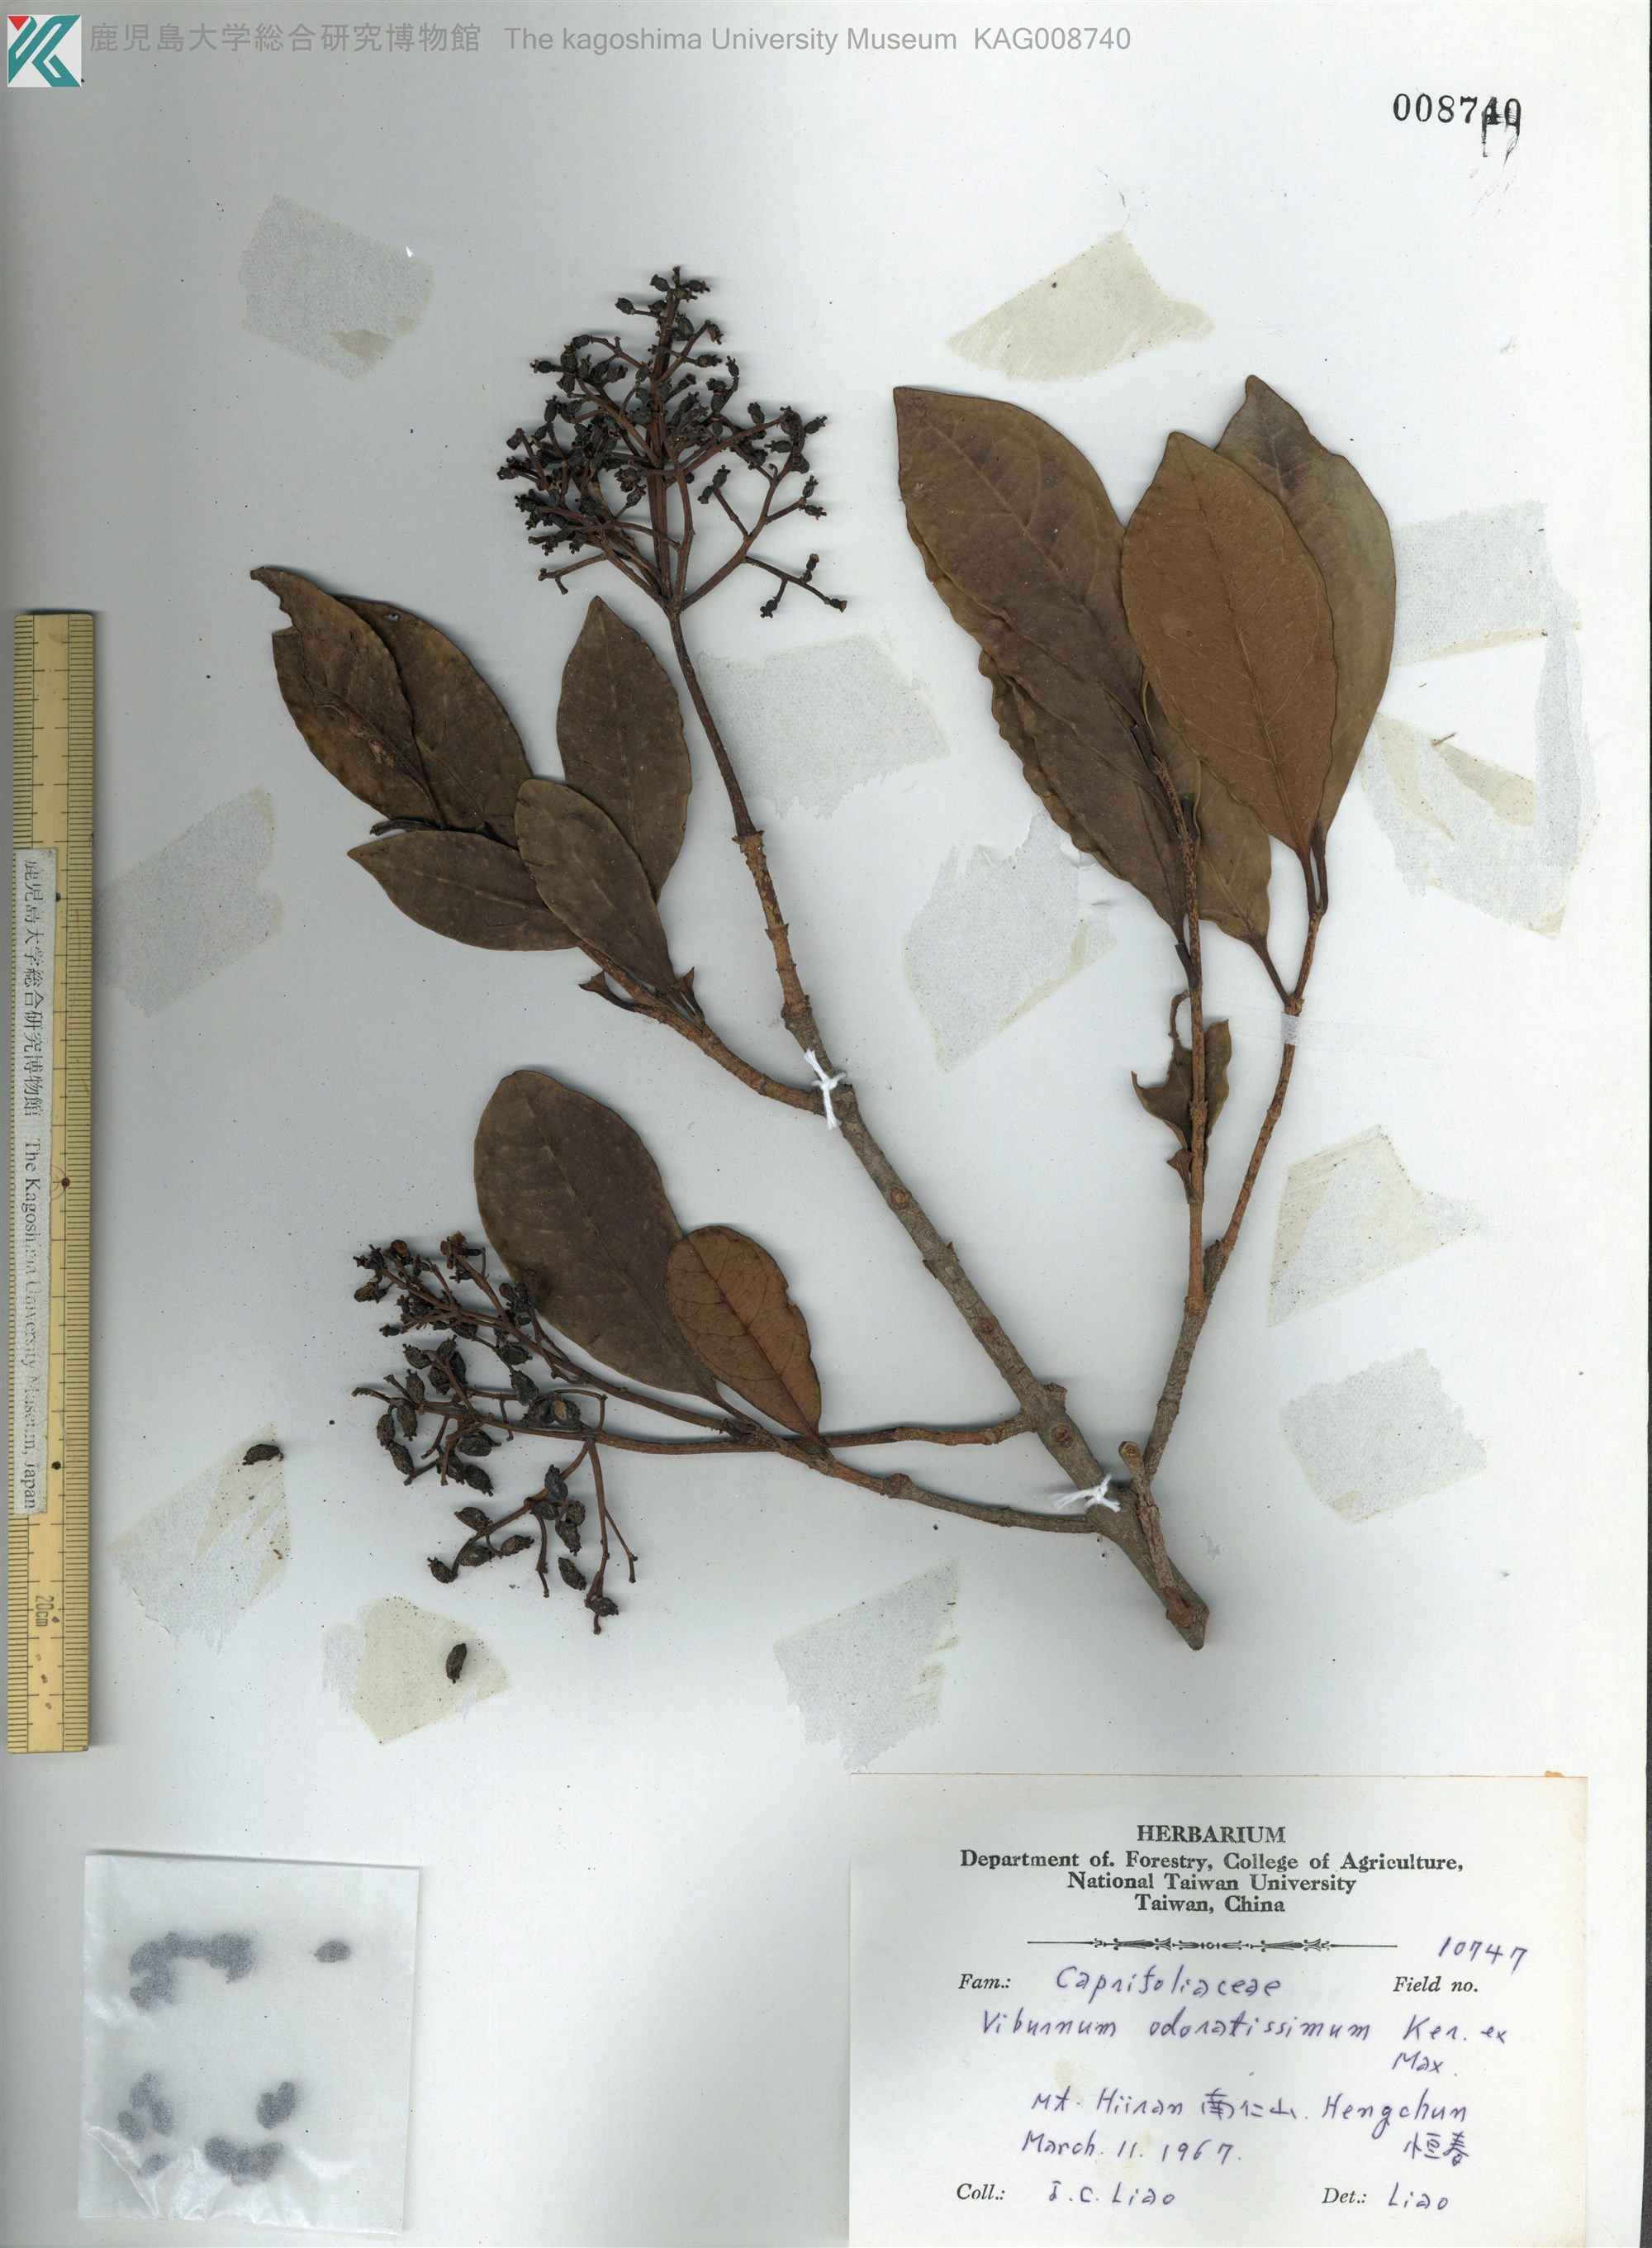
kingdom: Plantae
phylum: Tracheophyta
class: Magnoliopsida
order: Dipsacales
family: Viburnaceae
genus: Viburnum
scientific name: Viburnum odoratissimum
